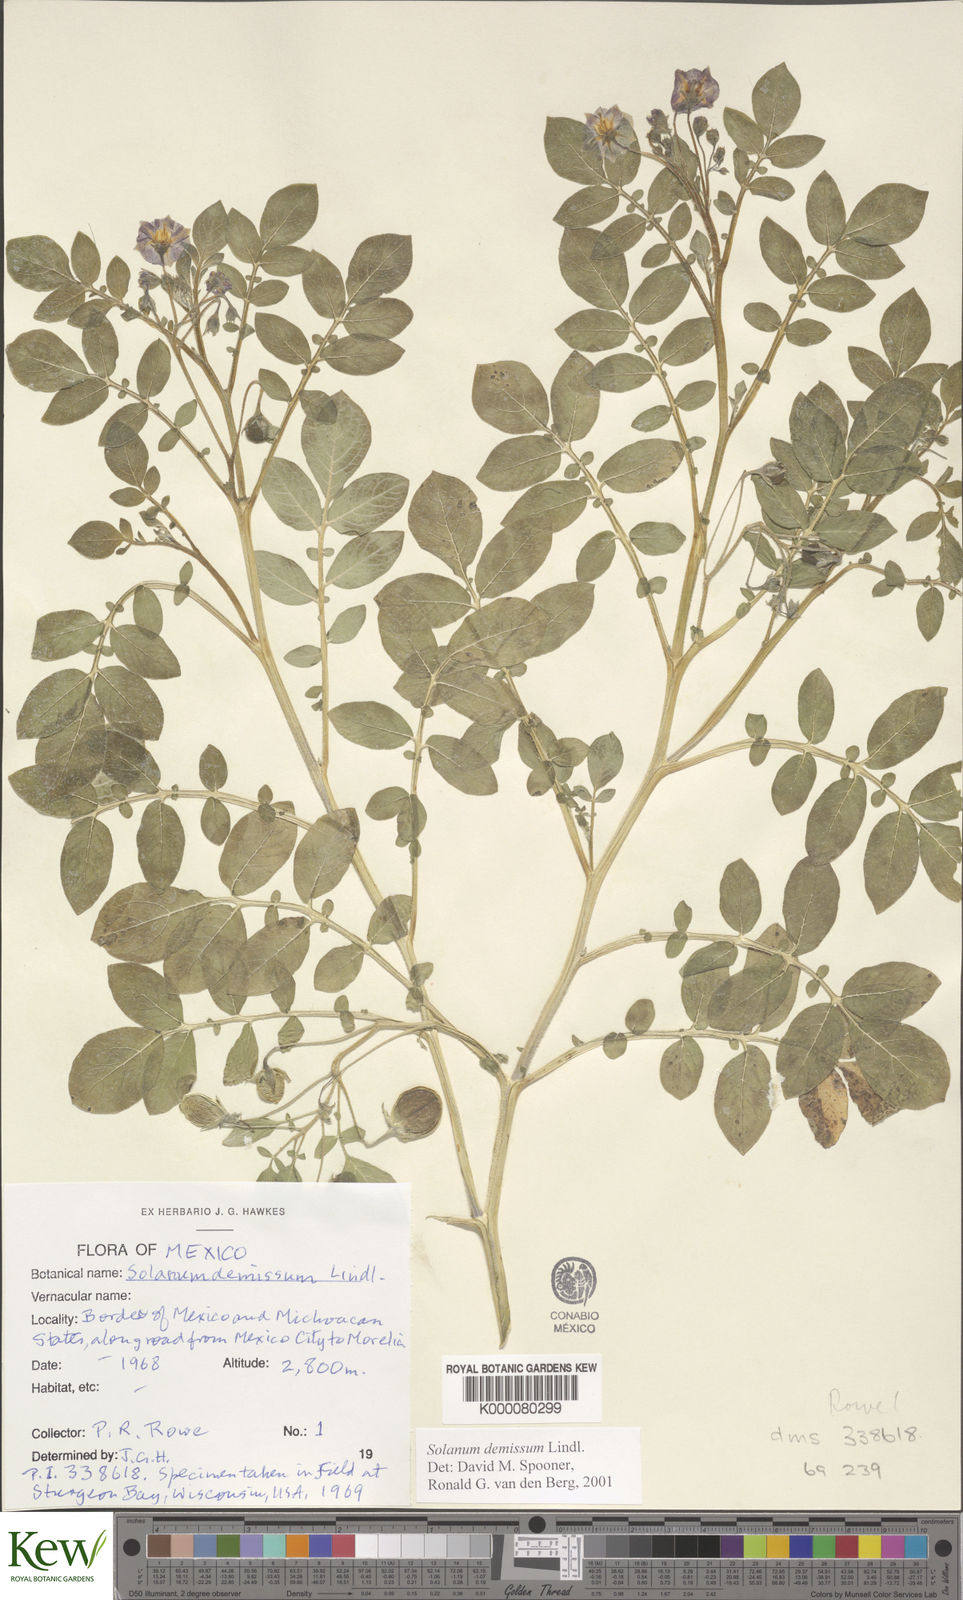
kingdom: Plantae
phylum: Tracheophyta
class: Magnoliopsida
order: Solanales
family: Solanaceae
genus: Solanum
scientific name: Solanum demissum
